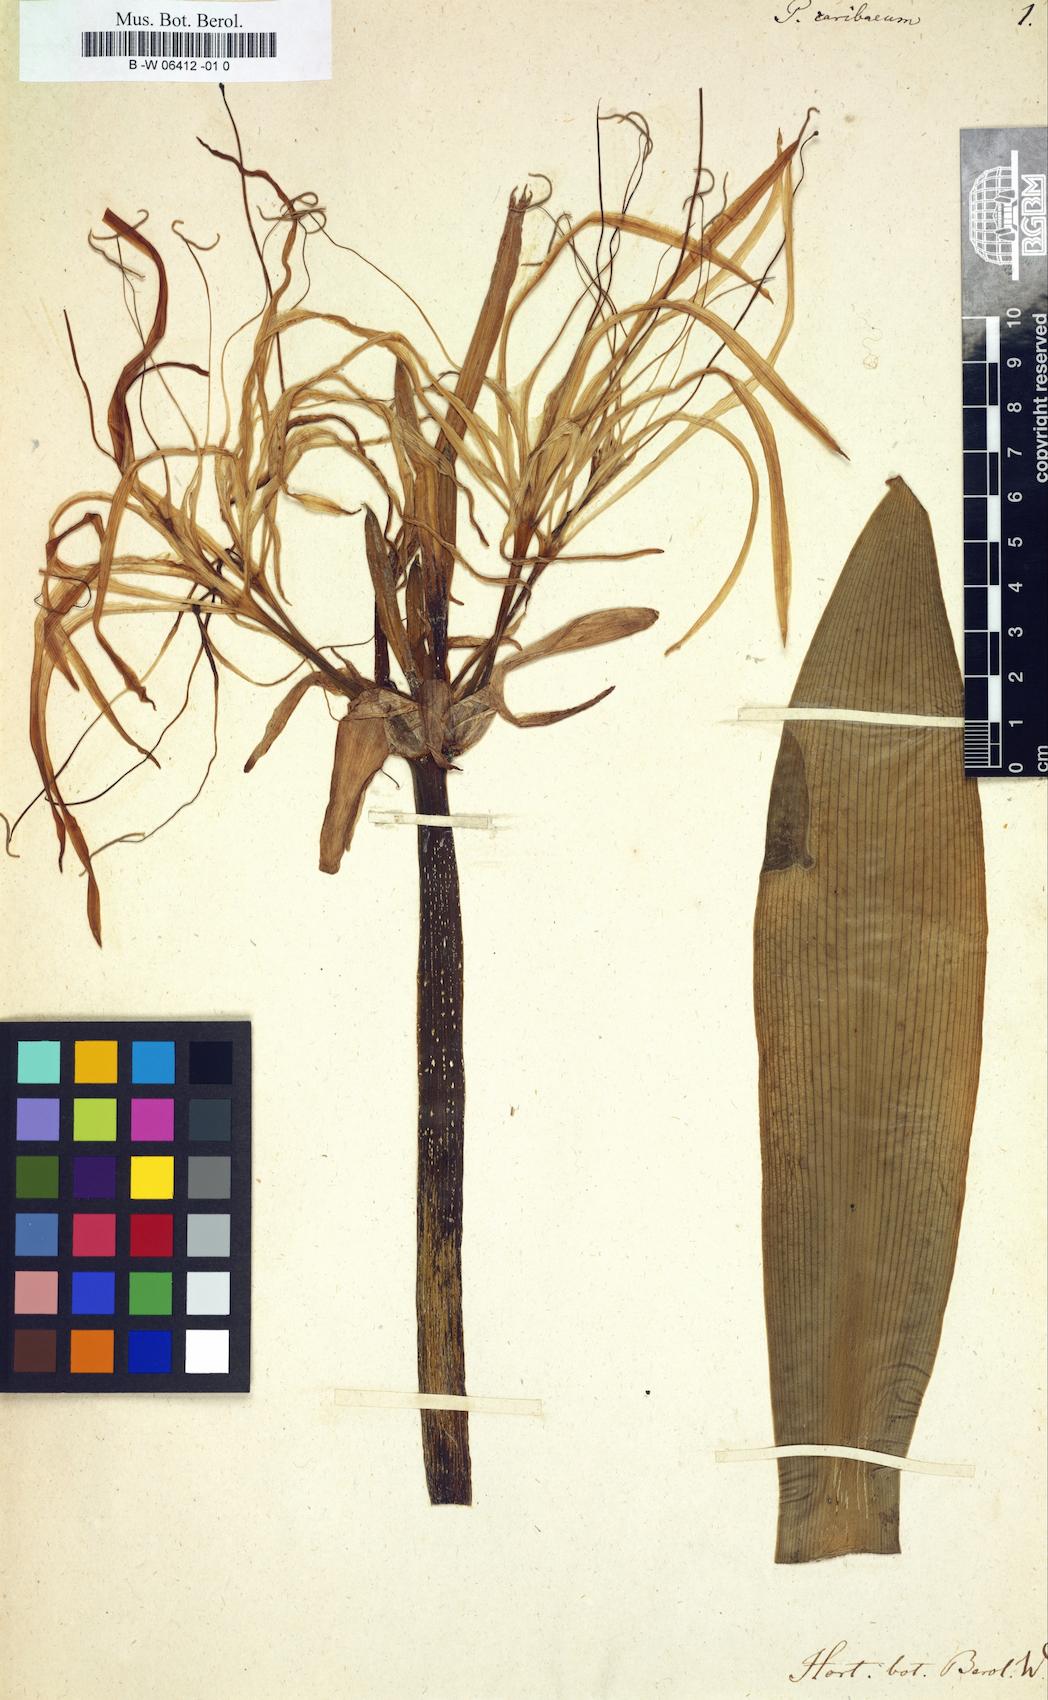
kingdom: Plantae
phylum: Tracheophyta
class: Liliopsida
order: Asparagales
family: Amaryllidaceae
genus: Pancratium
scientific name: Pancratium caribaeum
